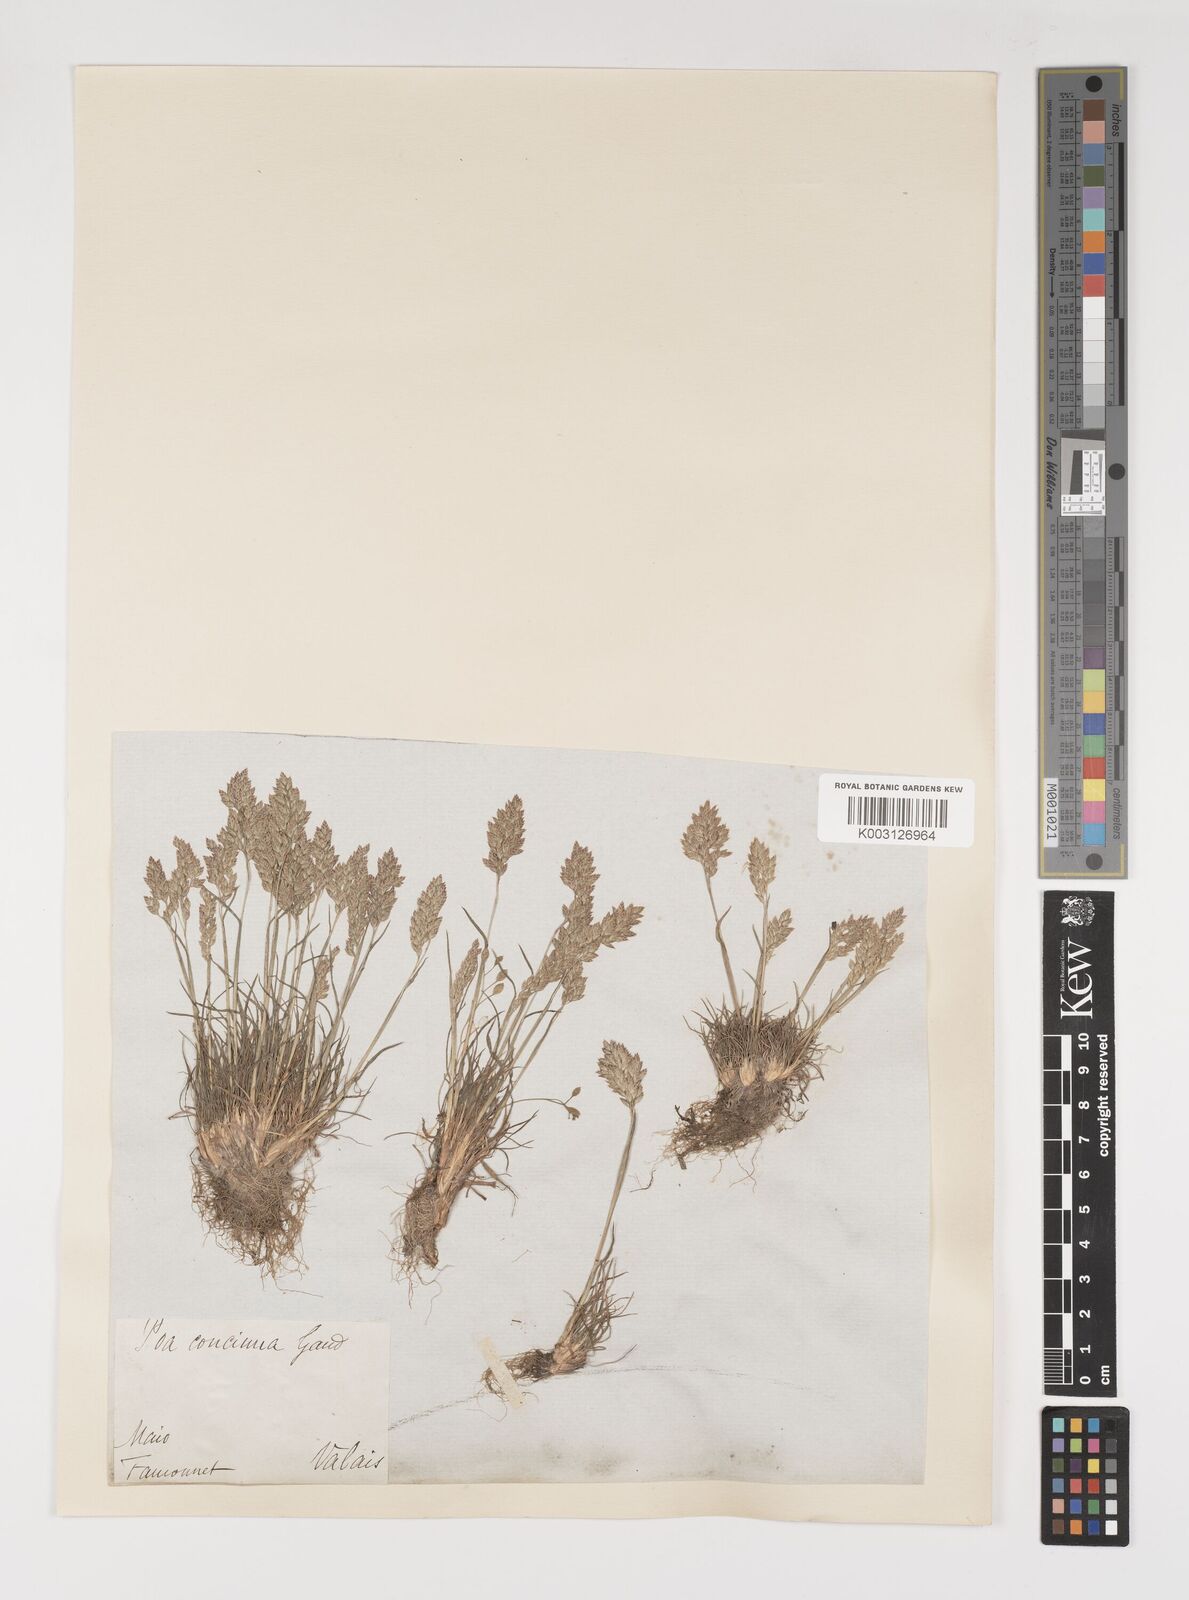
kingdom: Plantae
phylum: Tracheophyta
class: Liliopsida
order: Poales
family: Poaceae
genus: Poa
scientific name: Poa perconcinna
